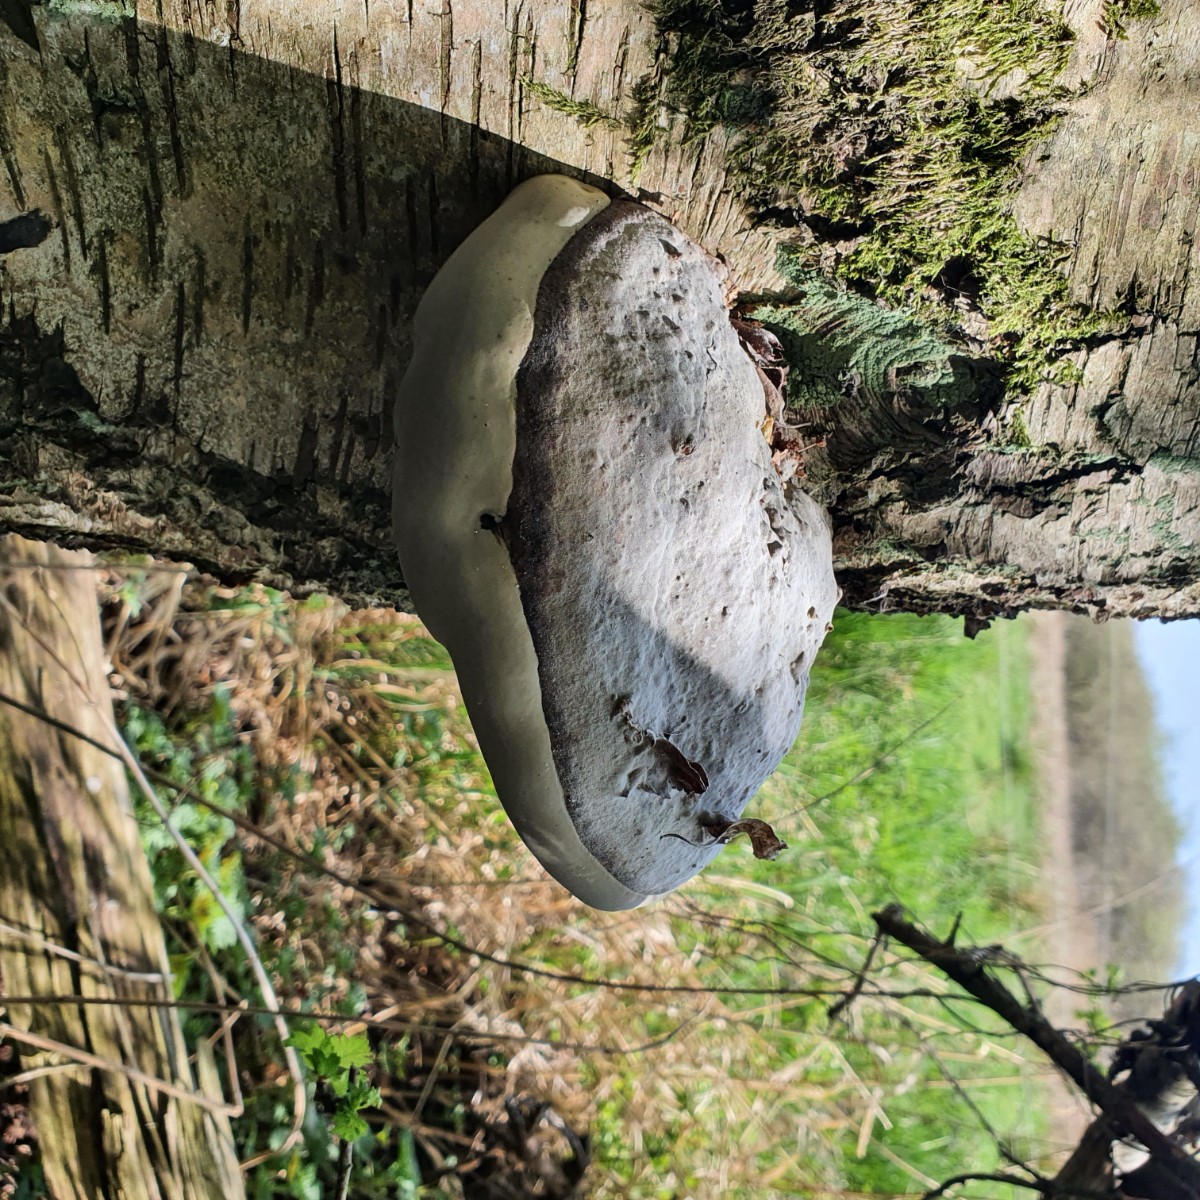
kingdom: Fungi
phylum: Basidiomycota
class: Agaricomycetes
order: Polyporales
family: Polyporaceae
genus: Fomes
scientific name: Fomes fomentarius
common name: tøndersvamp
